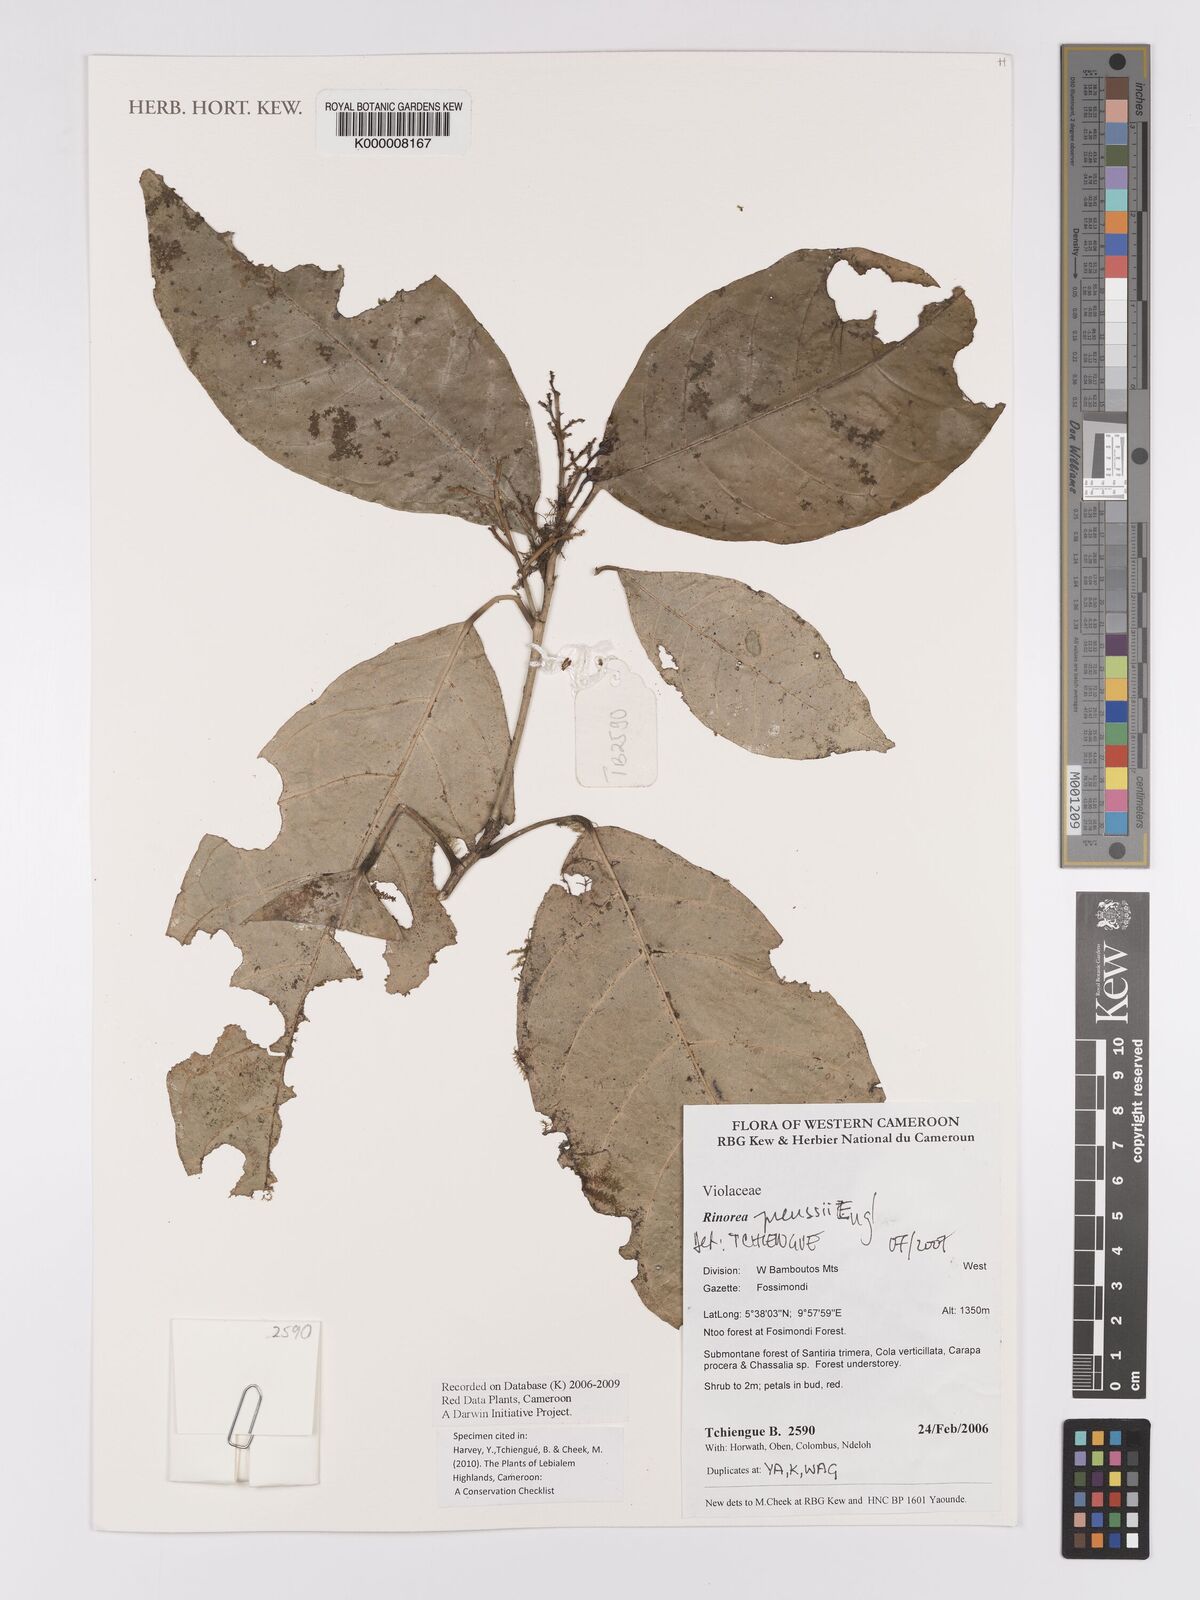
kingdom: Plantae
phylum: Tracheophyta
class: Magnoliopsida
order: Malpighiales
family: Violaceae
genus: Rinorea
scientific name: Rinorea preussii
